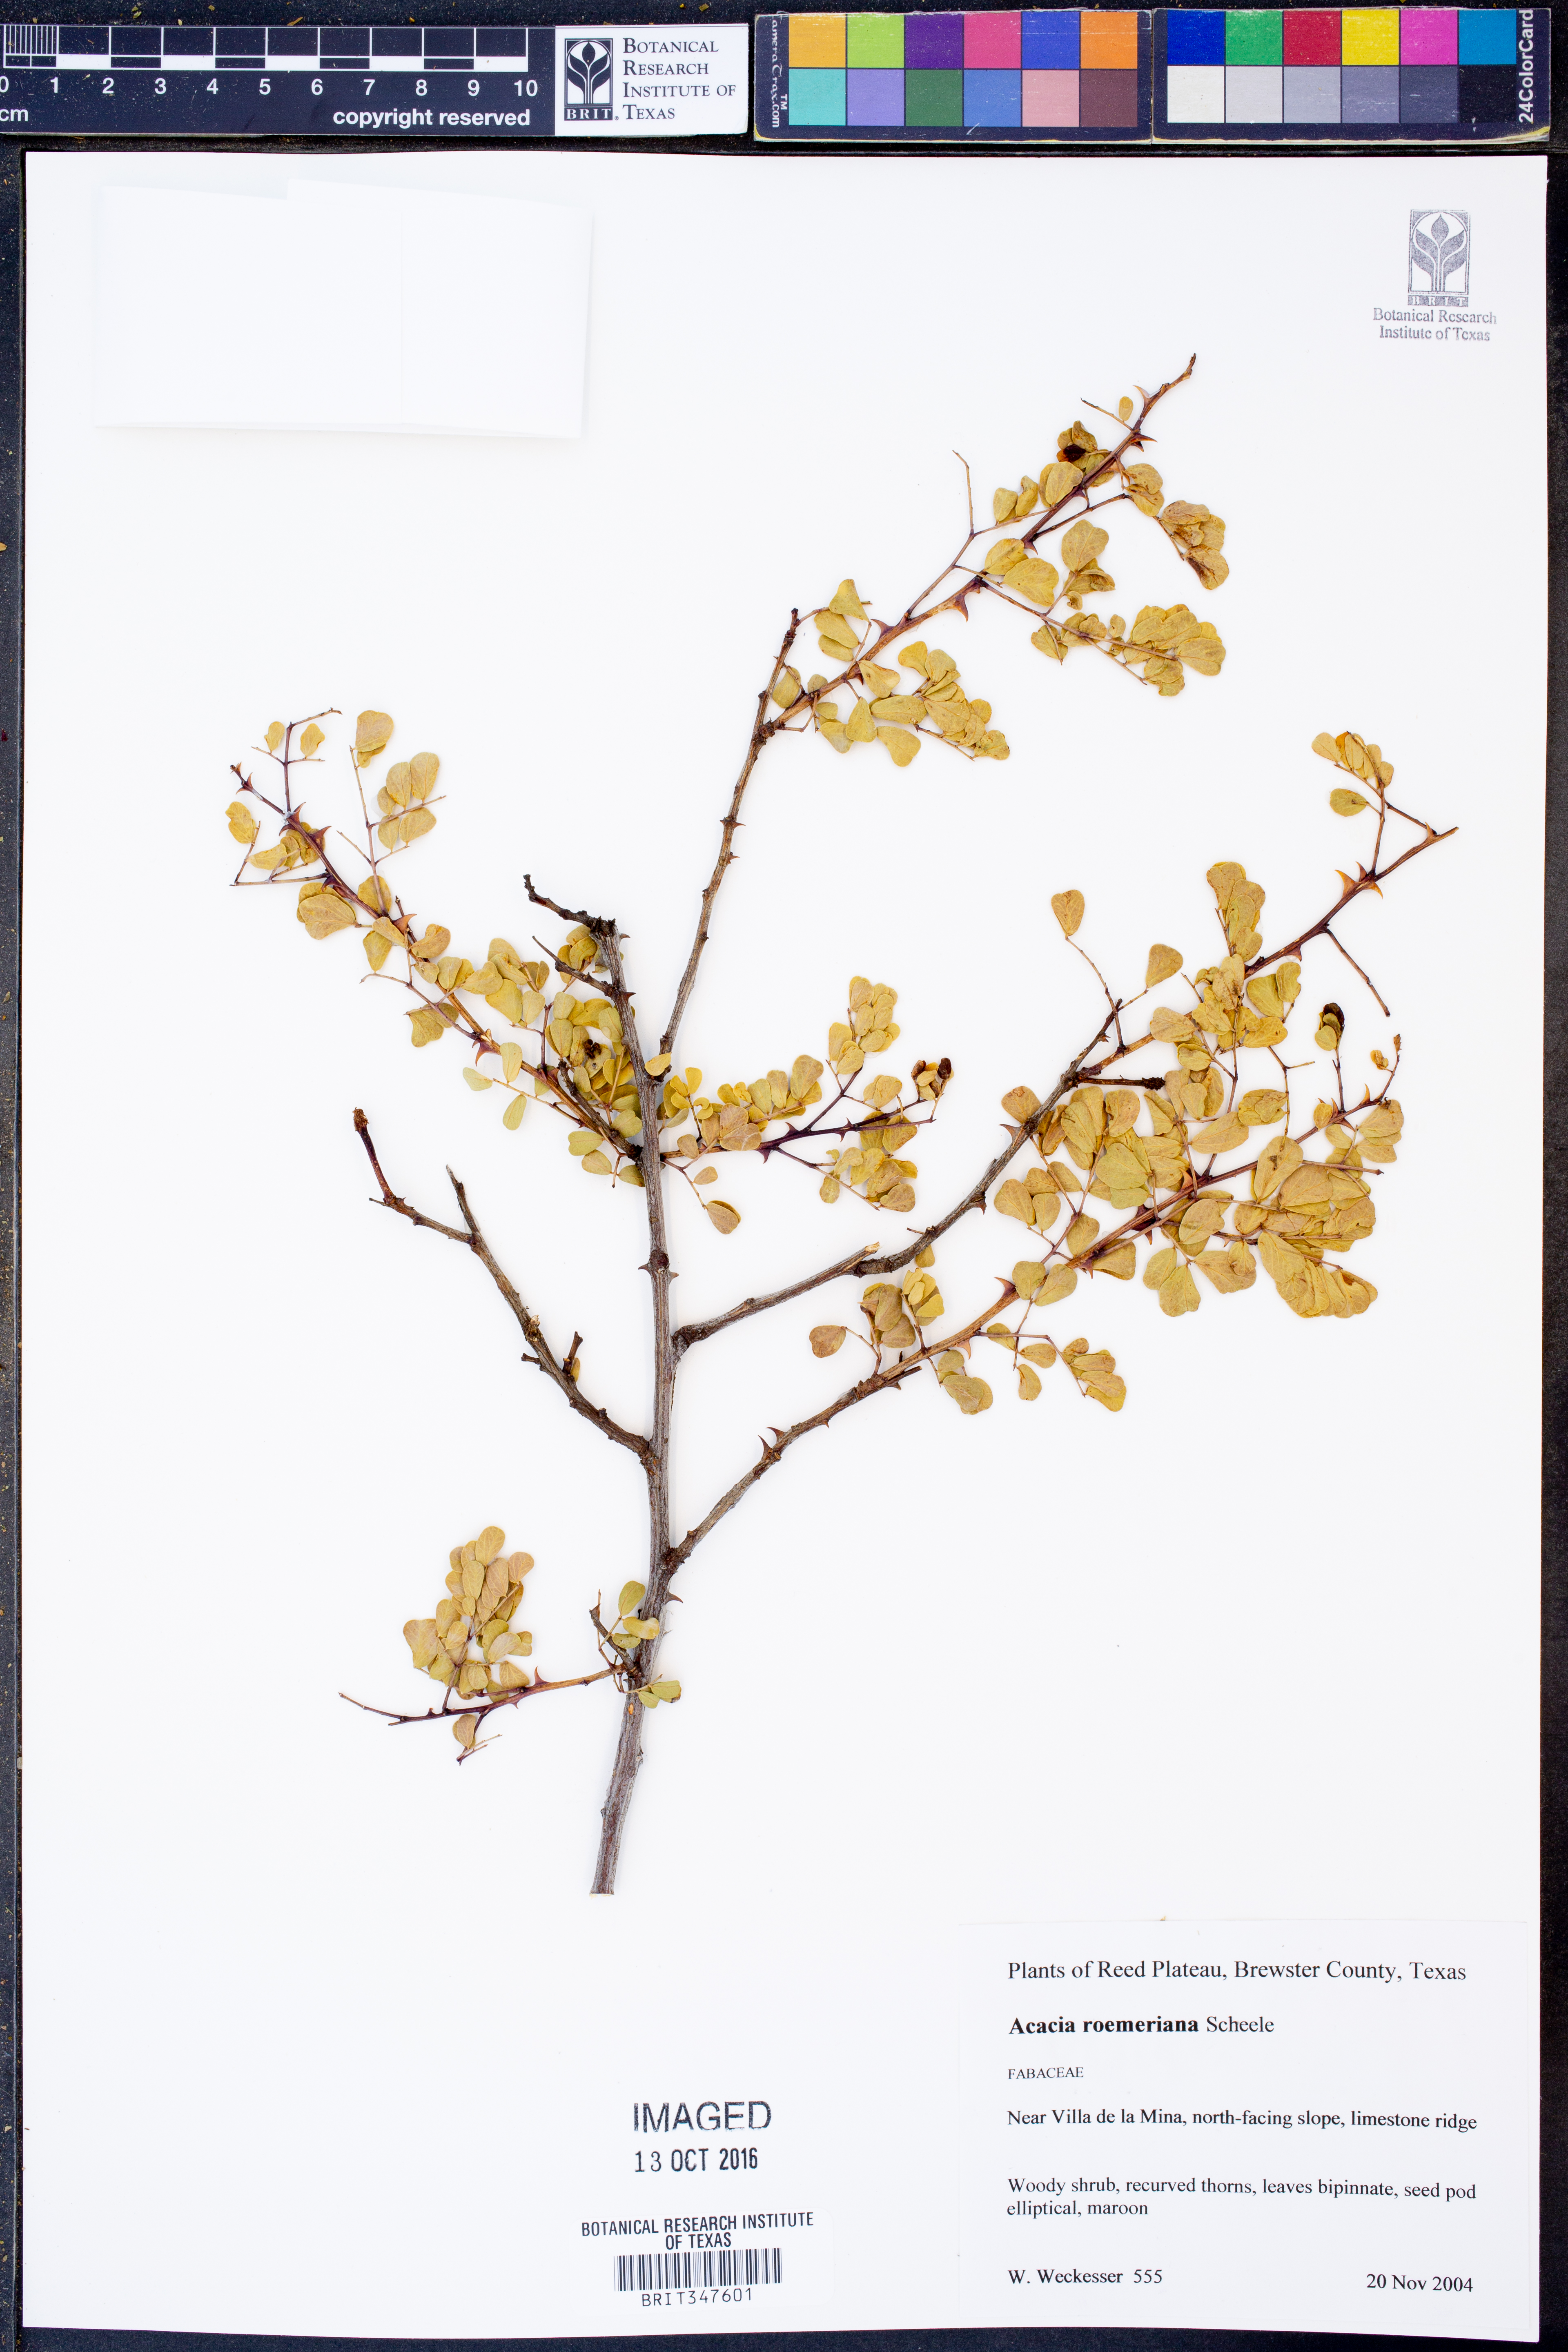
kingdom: Plantae
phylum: Tracheophyta
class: Magnoliopsida
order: Fabales
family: Fabaceae
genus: Senegalia
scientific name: Senegalia roemeriana
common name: Roemer's acacia
